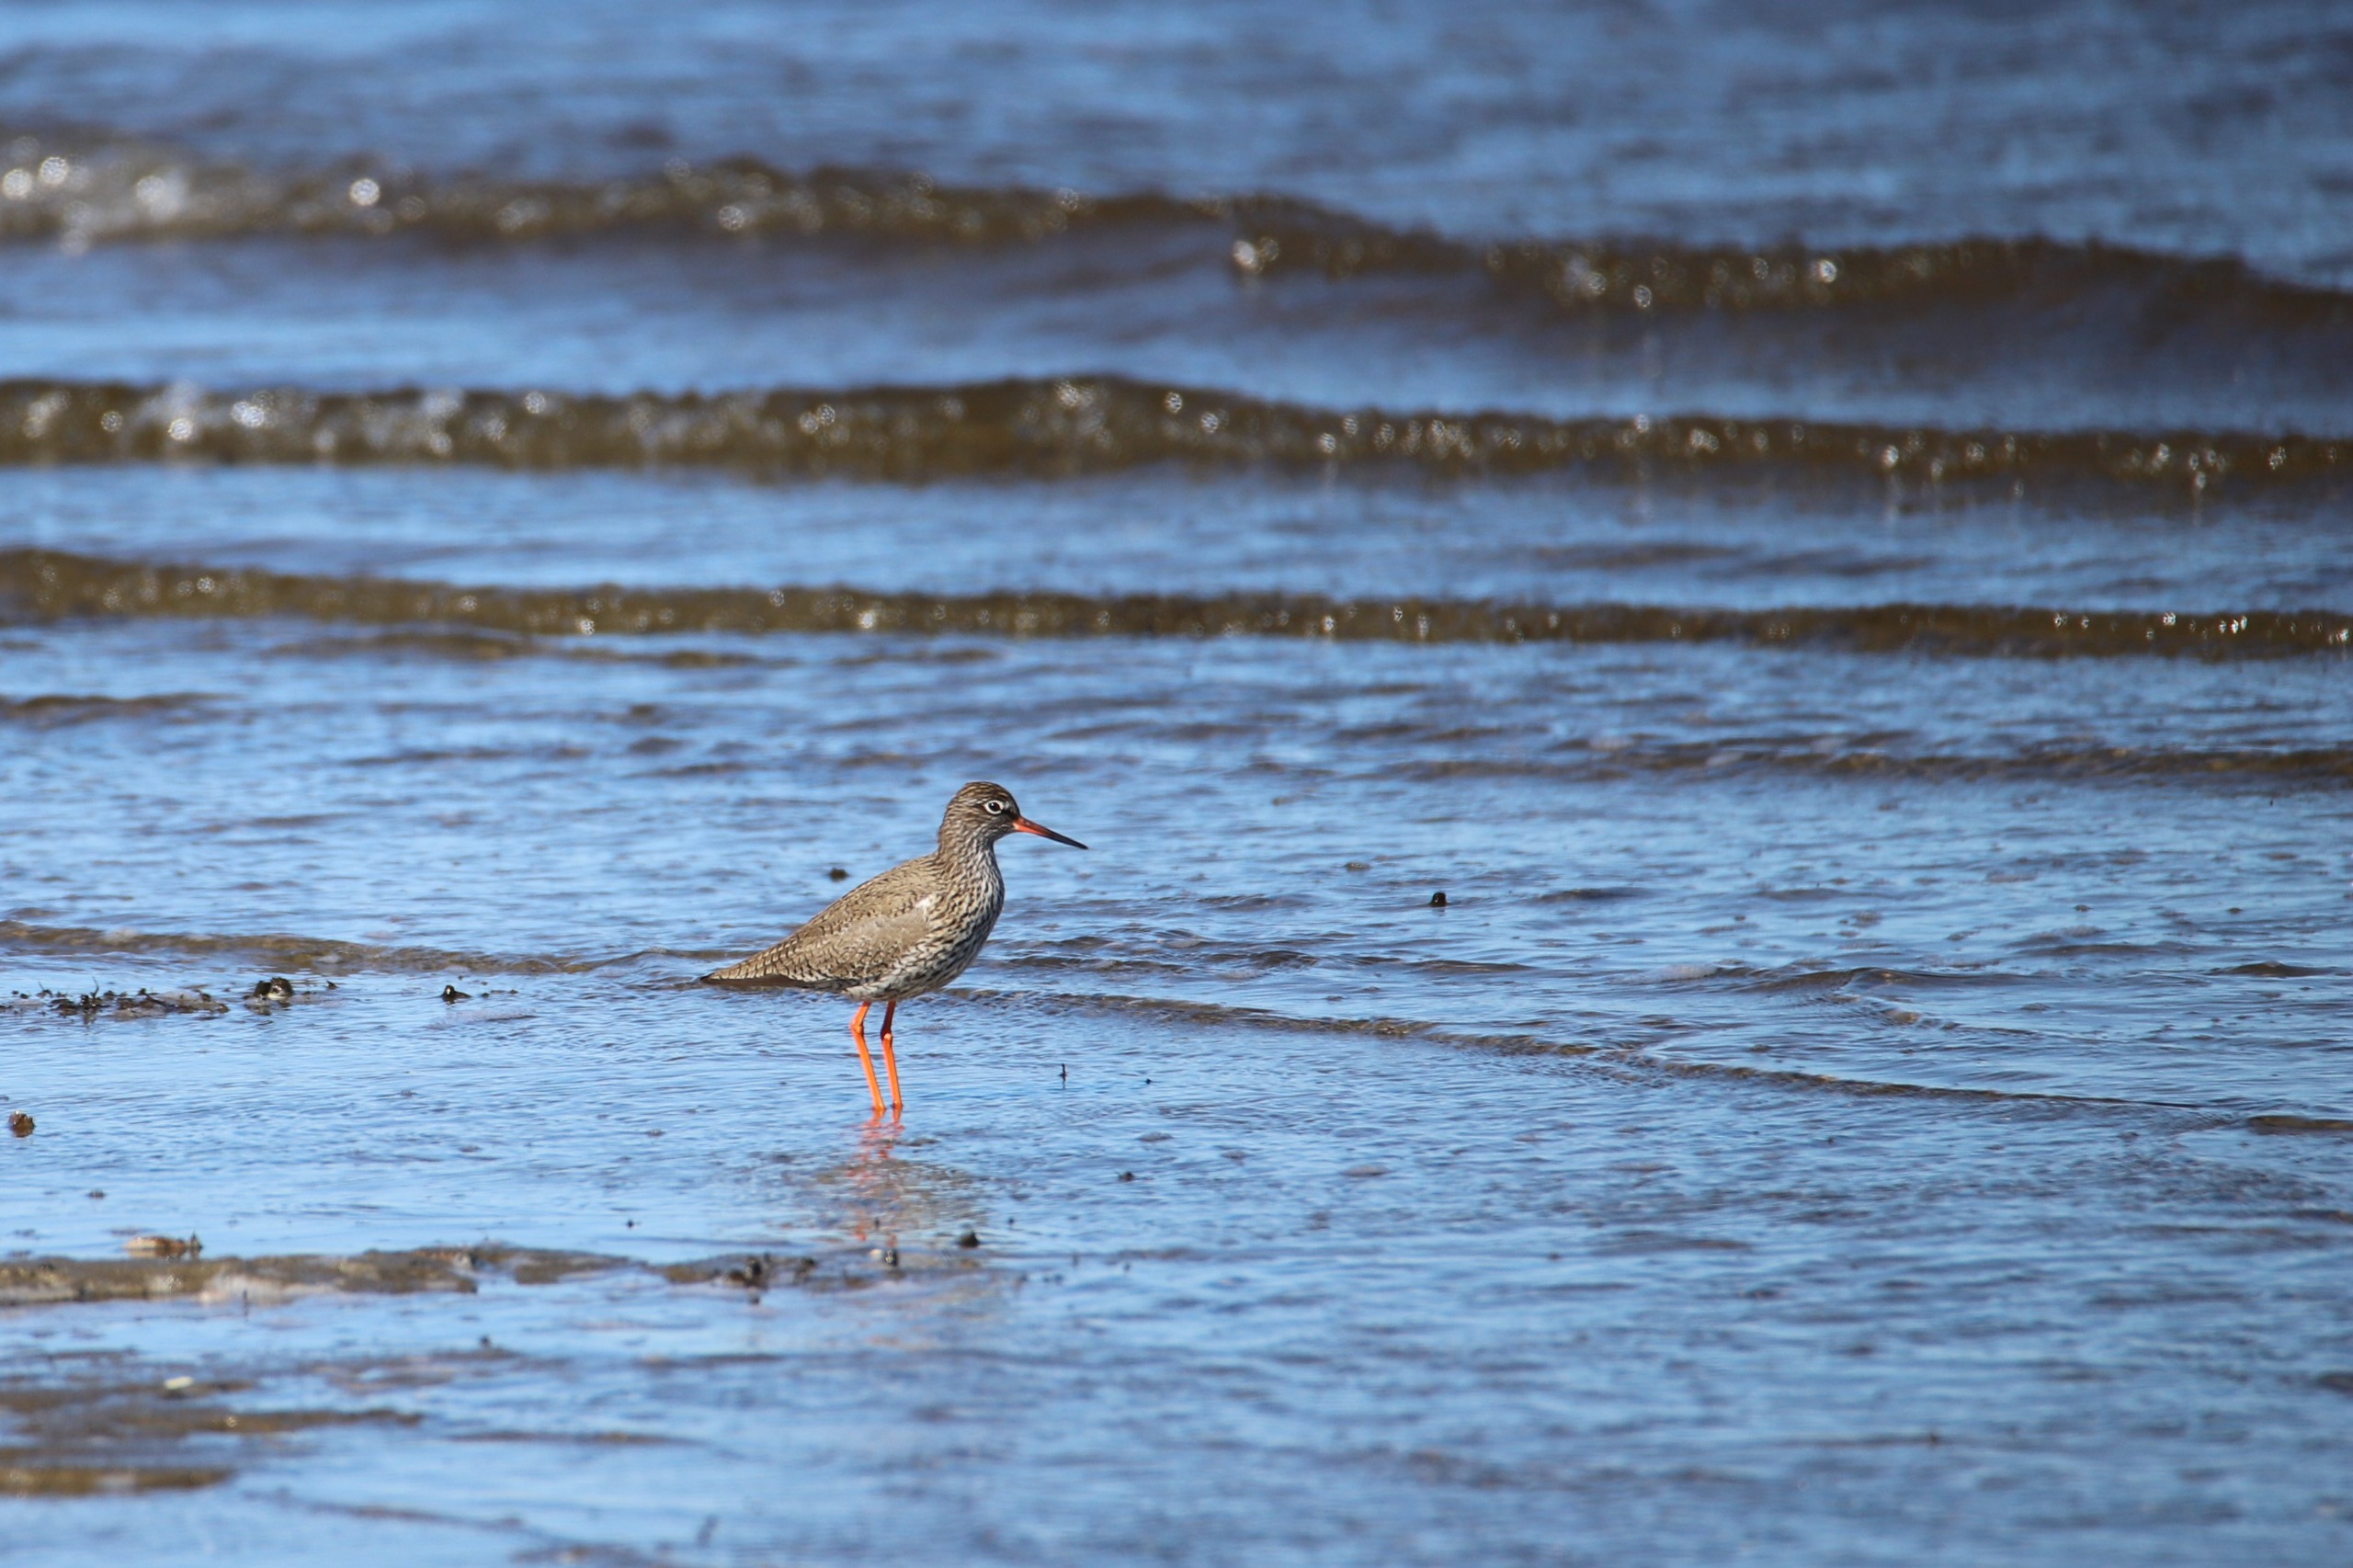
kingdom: Animalia
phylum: Chordata
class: Aves
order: Charadriiformes
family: Scolopacidae
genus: Tringa
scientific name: Tringa totanus
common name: Rødben
